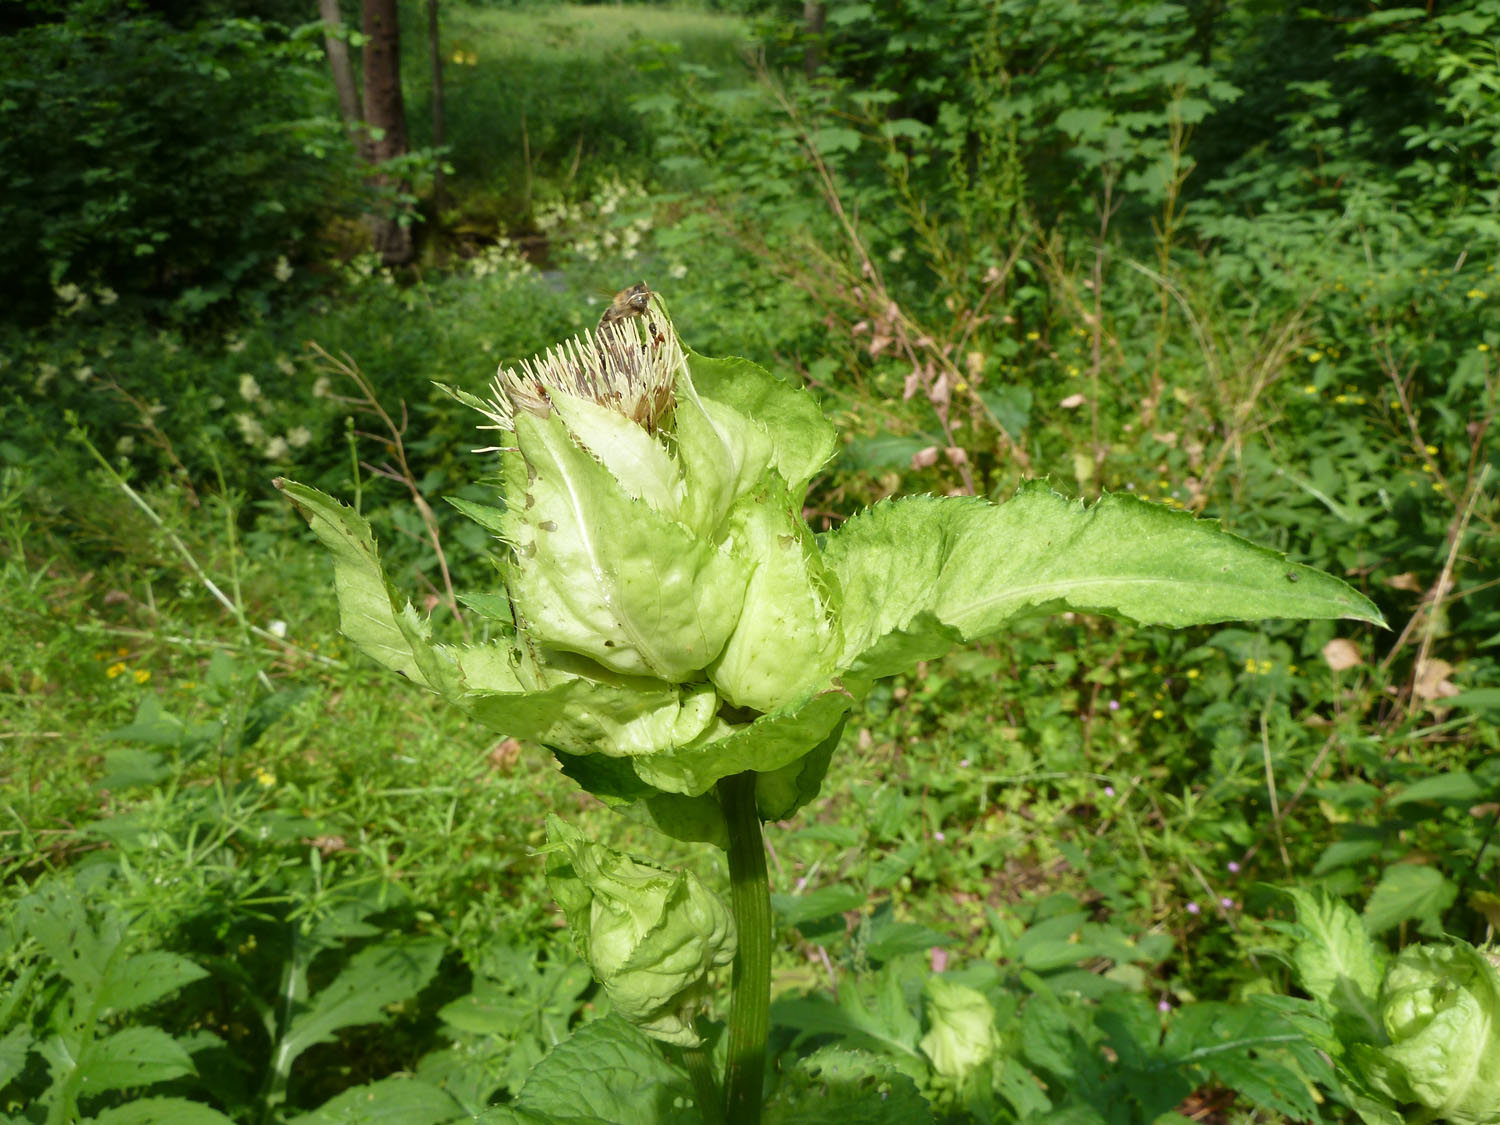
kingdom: Plantae
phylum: Tracheophyta
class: Magnoliopsida
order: Asterales
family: Asteraceae
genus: Cirsium
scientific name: Cirsium oleraceum
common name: Cabbage thistle
